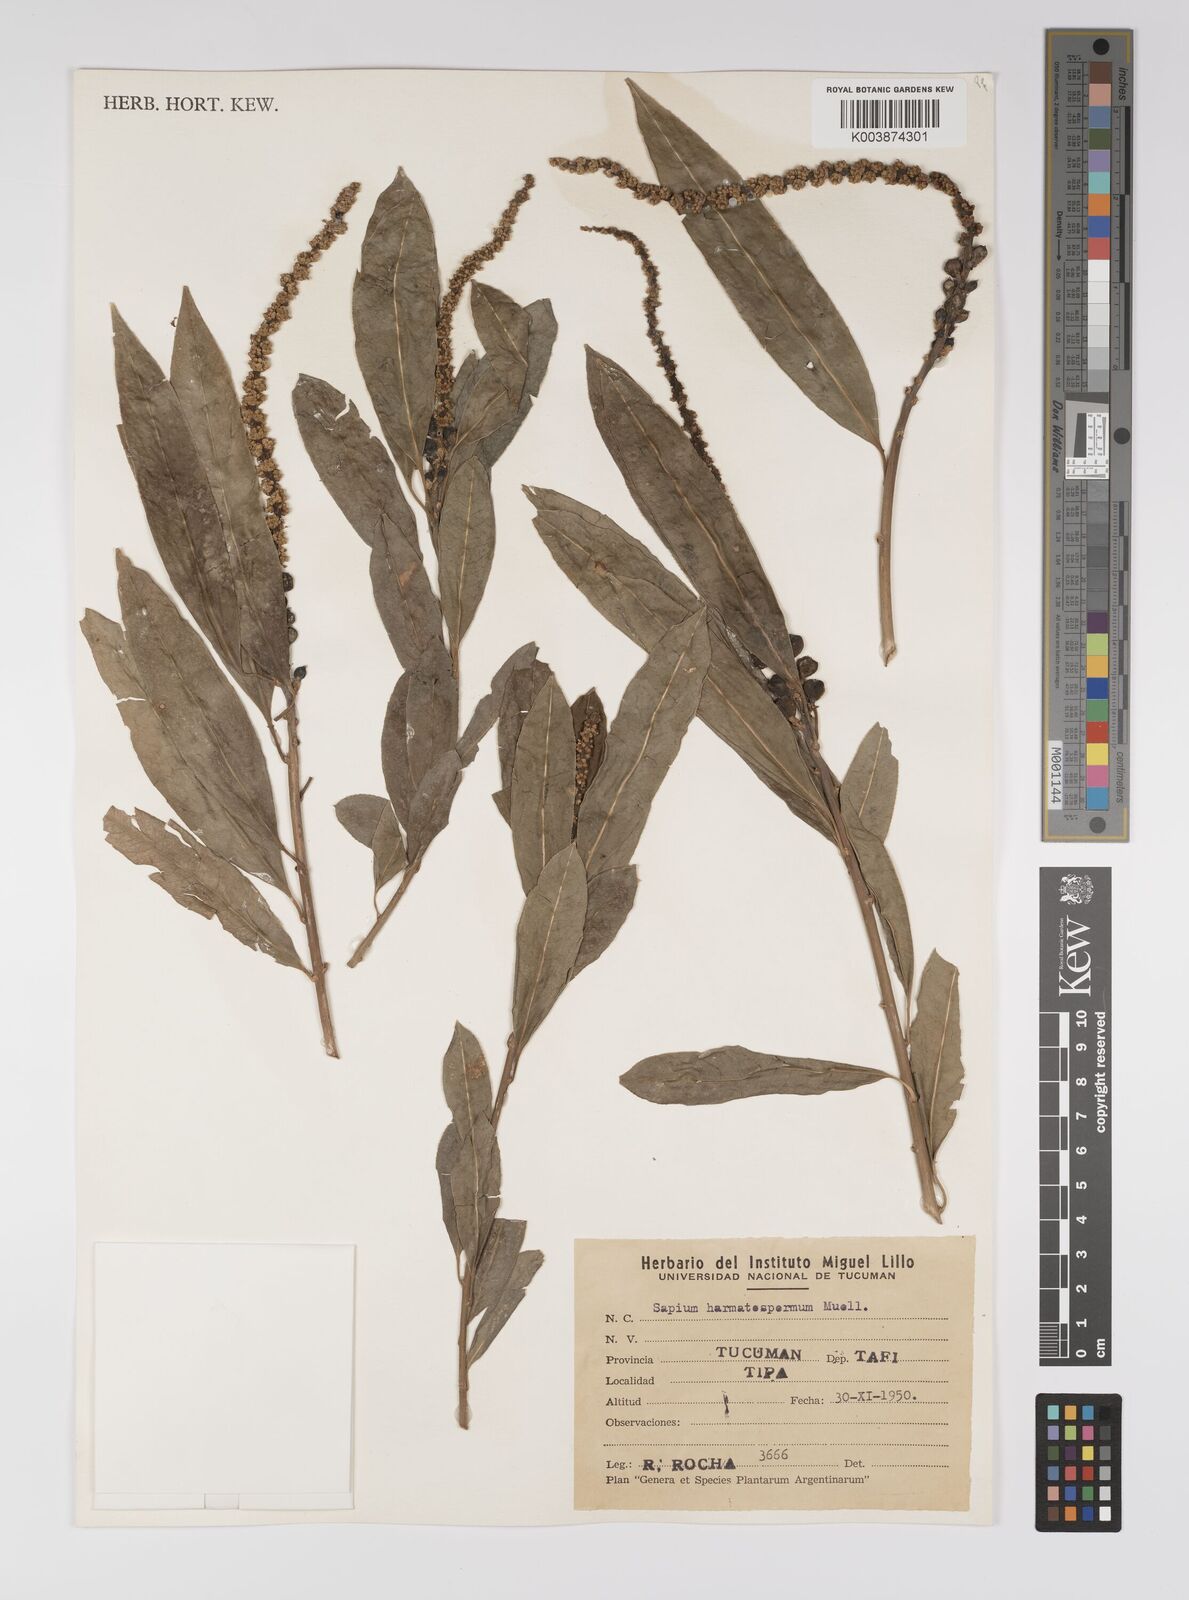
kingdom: Plantae
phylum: Tracheophyta
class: Magnoliopsida
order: Malpighiales
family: Euphorbiaceae
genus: Sapium
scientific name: Sapium haematospermum
